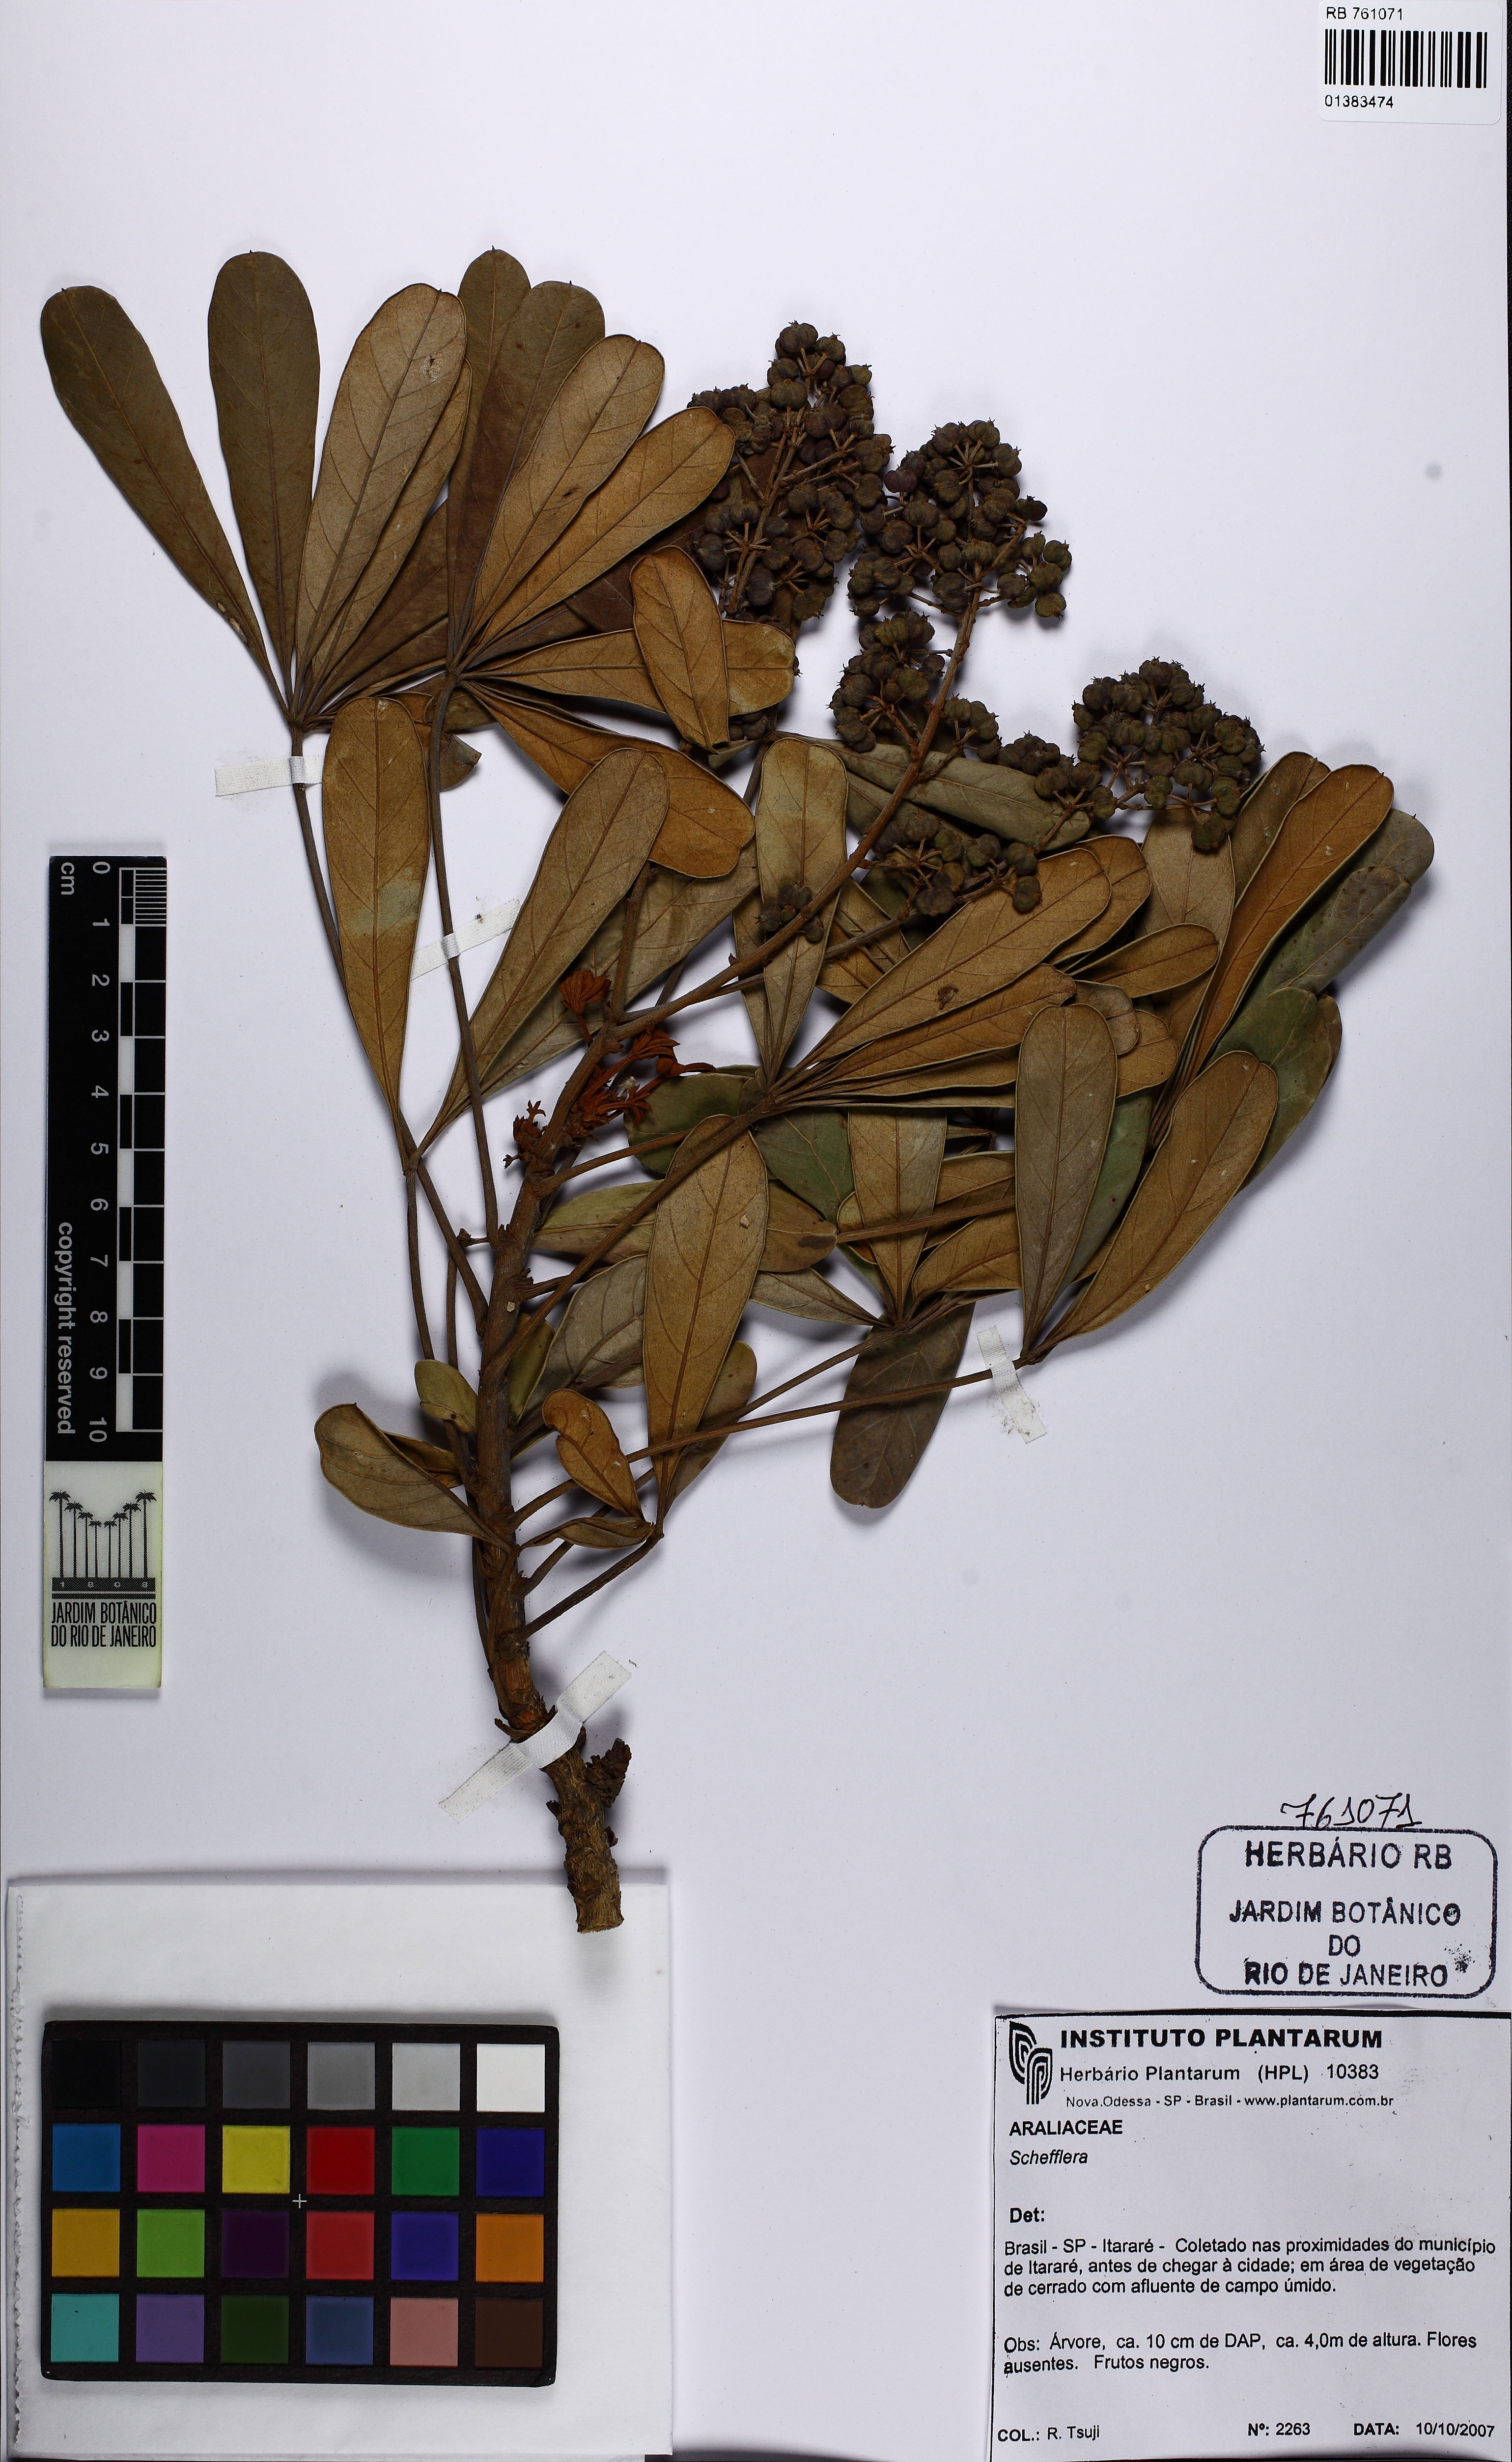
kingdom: Plantae
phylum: Tracheophyta
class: Magnoliopsida
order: Apiales
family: Araliaceae
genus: Didymopanax
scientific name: Didymopanax vinosus
